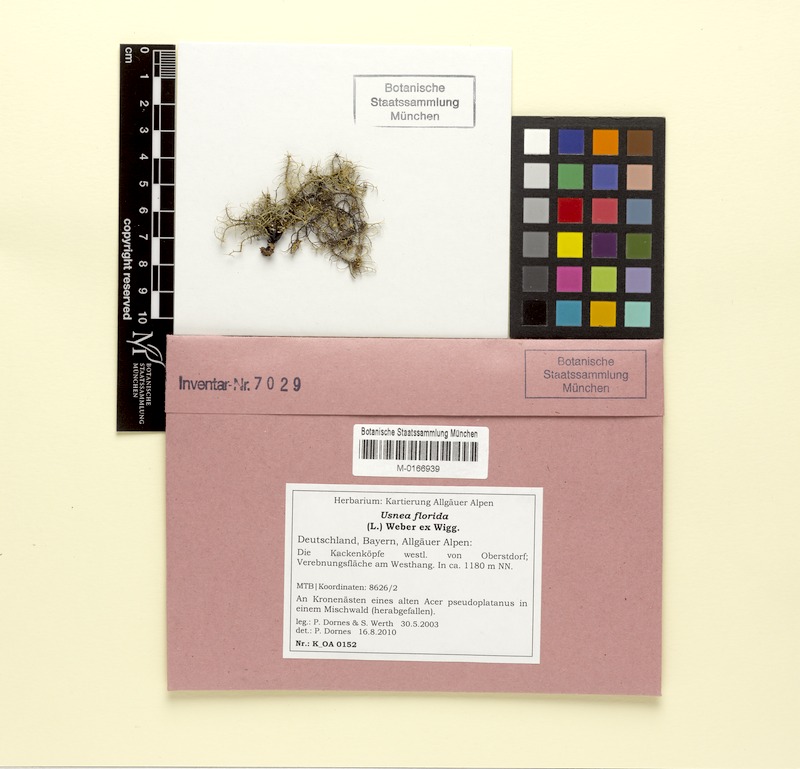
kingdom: Fungi
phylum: Ascomycota
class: Lecanoromycetes
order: Lecanorales
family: Parmeliaceae
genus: Usnea
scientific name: Usnea florida
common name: Witches' whiskers lichen
